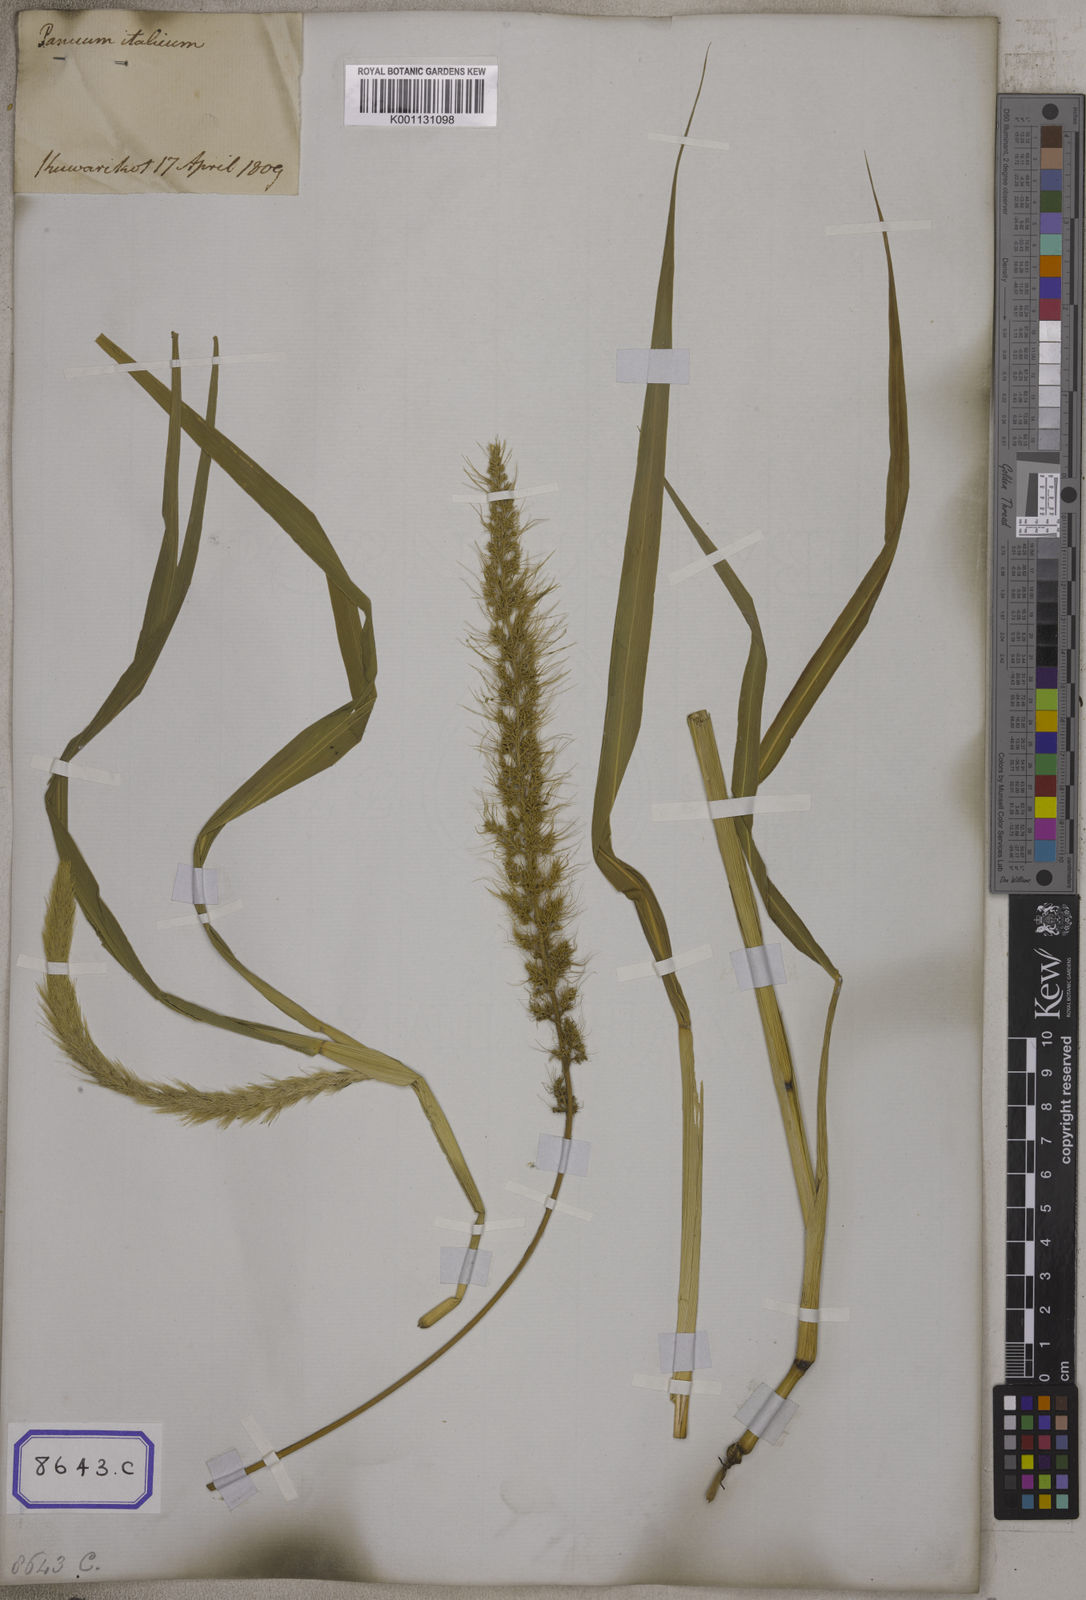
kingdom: Plantae
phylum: Tracheophyta
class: Liliopsida
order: Poales
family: Poaceae
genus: Setaria
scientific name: Setaria italica
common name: Foxtail bristle-grass
